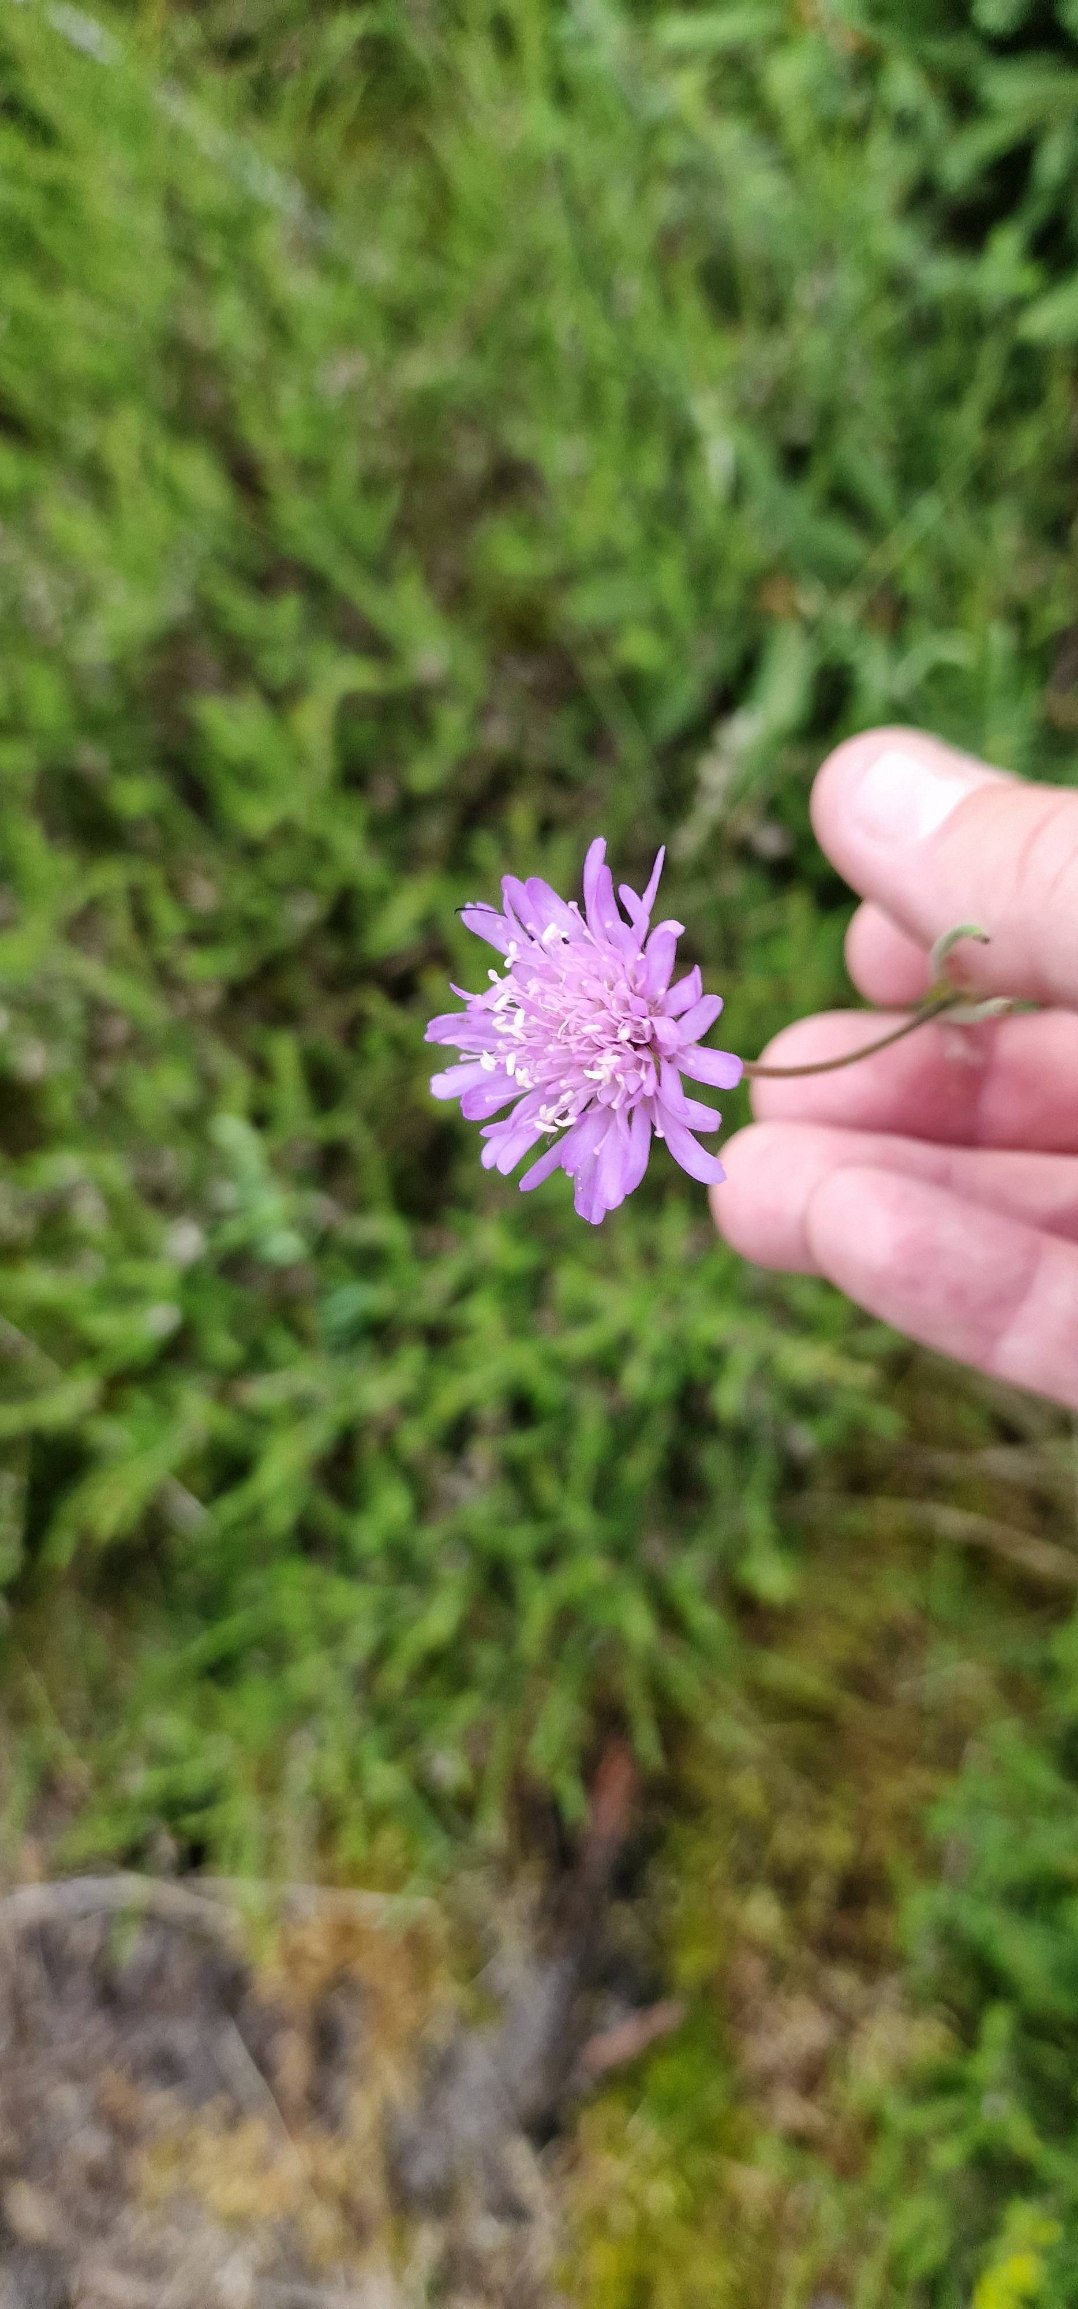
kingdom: Plantae
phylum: Tracheophyta
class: Magnoliopsida
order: Dipsacales
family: Caprifoliaceae
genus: Knautia
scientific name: Knautia arvensis
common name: Blåhat
